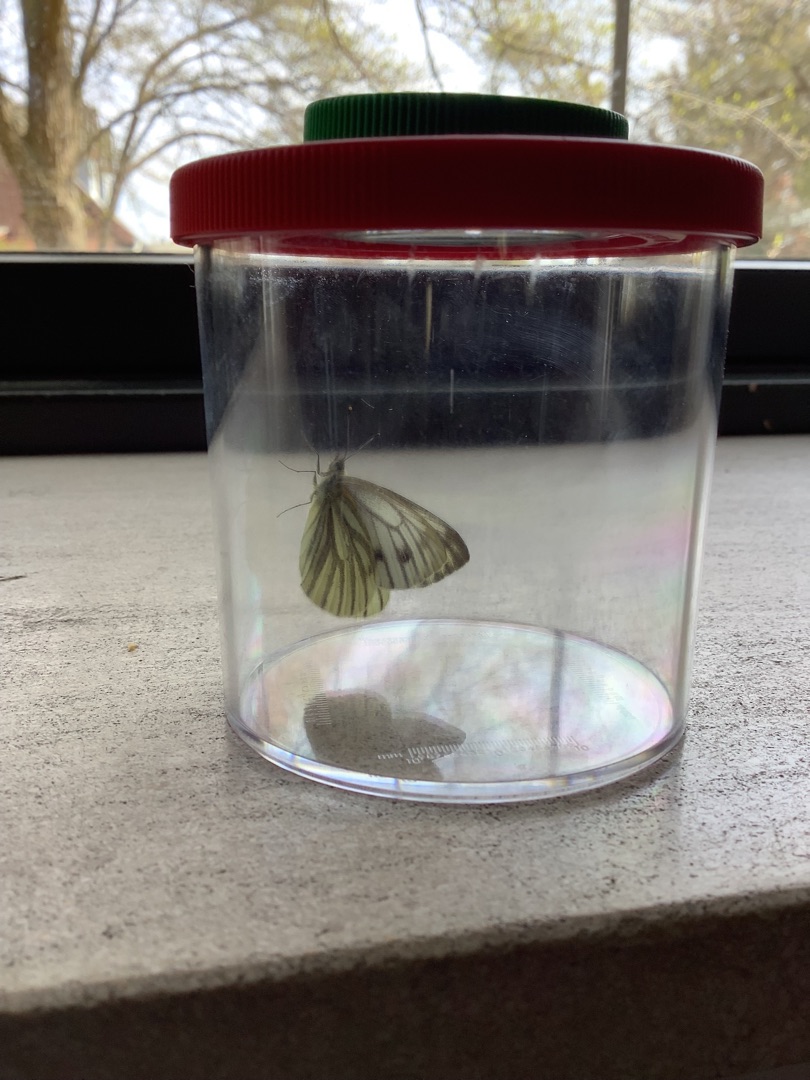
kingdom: Animalia
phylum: Arthropoda
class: Insecta
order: Lepidoptera
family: Pieridae
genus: Pieris
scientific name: Pieris napi
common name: Grønåret kålsommerfugl
